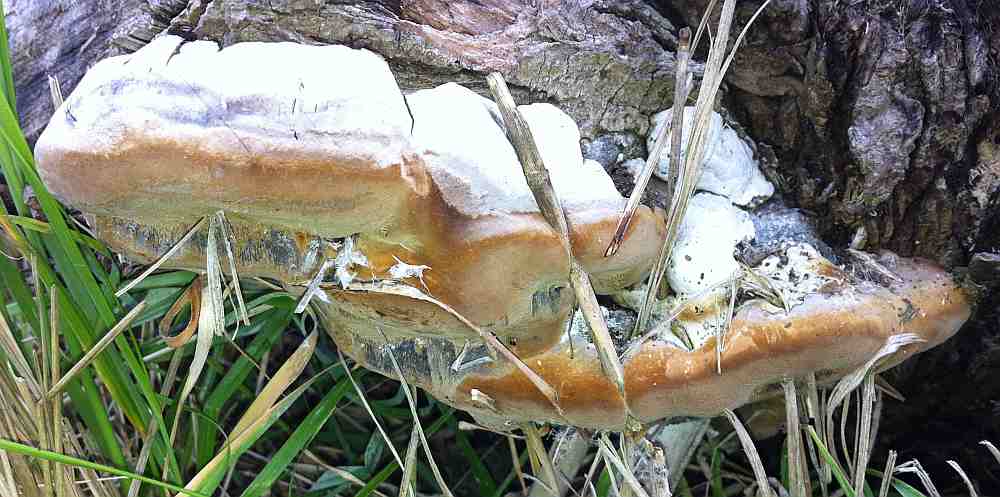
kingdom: Fungi
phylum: Basidiomycota
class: Agaricomycetes
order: Hymenochaetales
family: Hymenochaetaceae
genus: Phellinus
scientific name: Phellinus igniarius
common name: almindelig ildporesvamp
